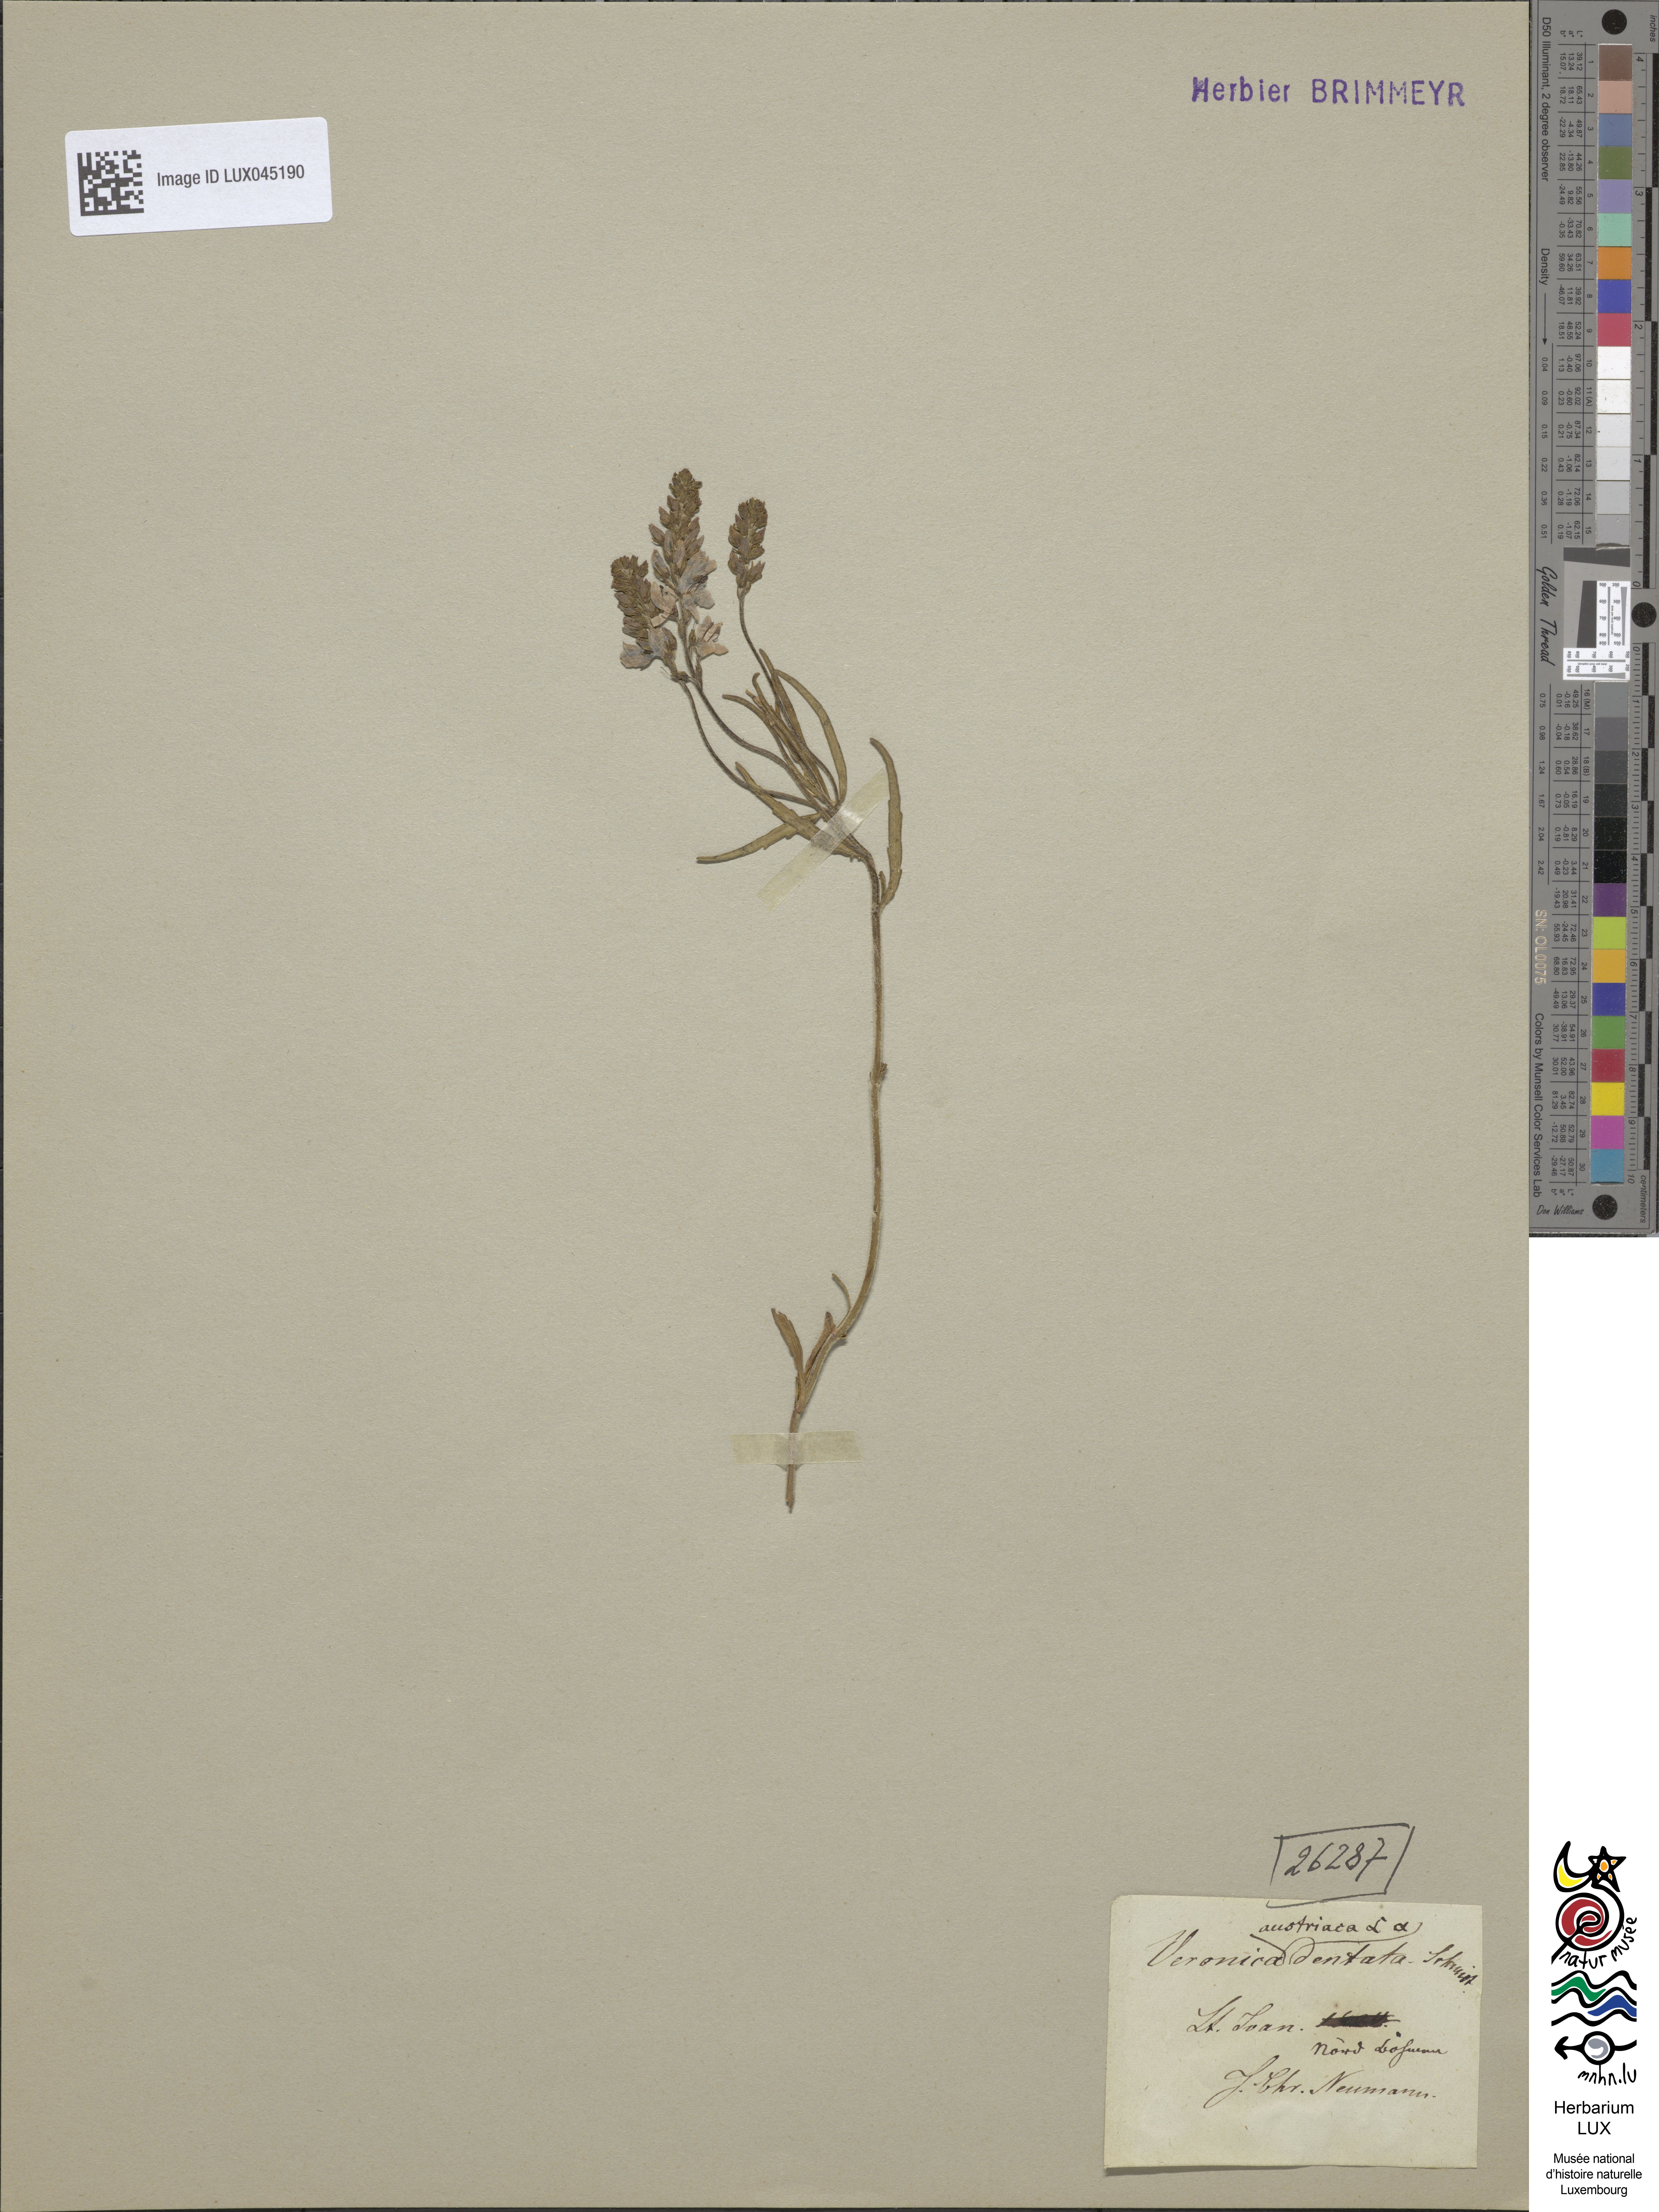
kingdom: Plantae
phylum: Tracheophyta
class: Magnoliopsida
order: Lamiales
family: Plantaginaceae
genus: Veronica
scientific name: Veronica austriaca
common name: Large speedwell
